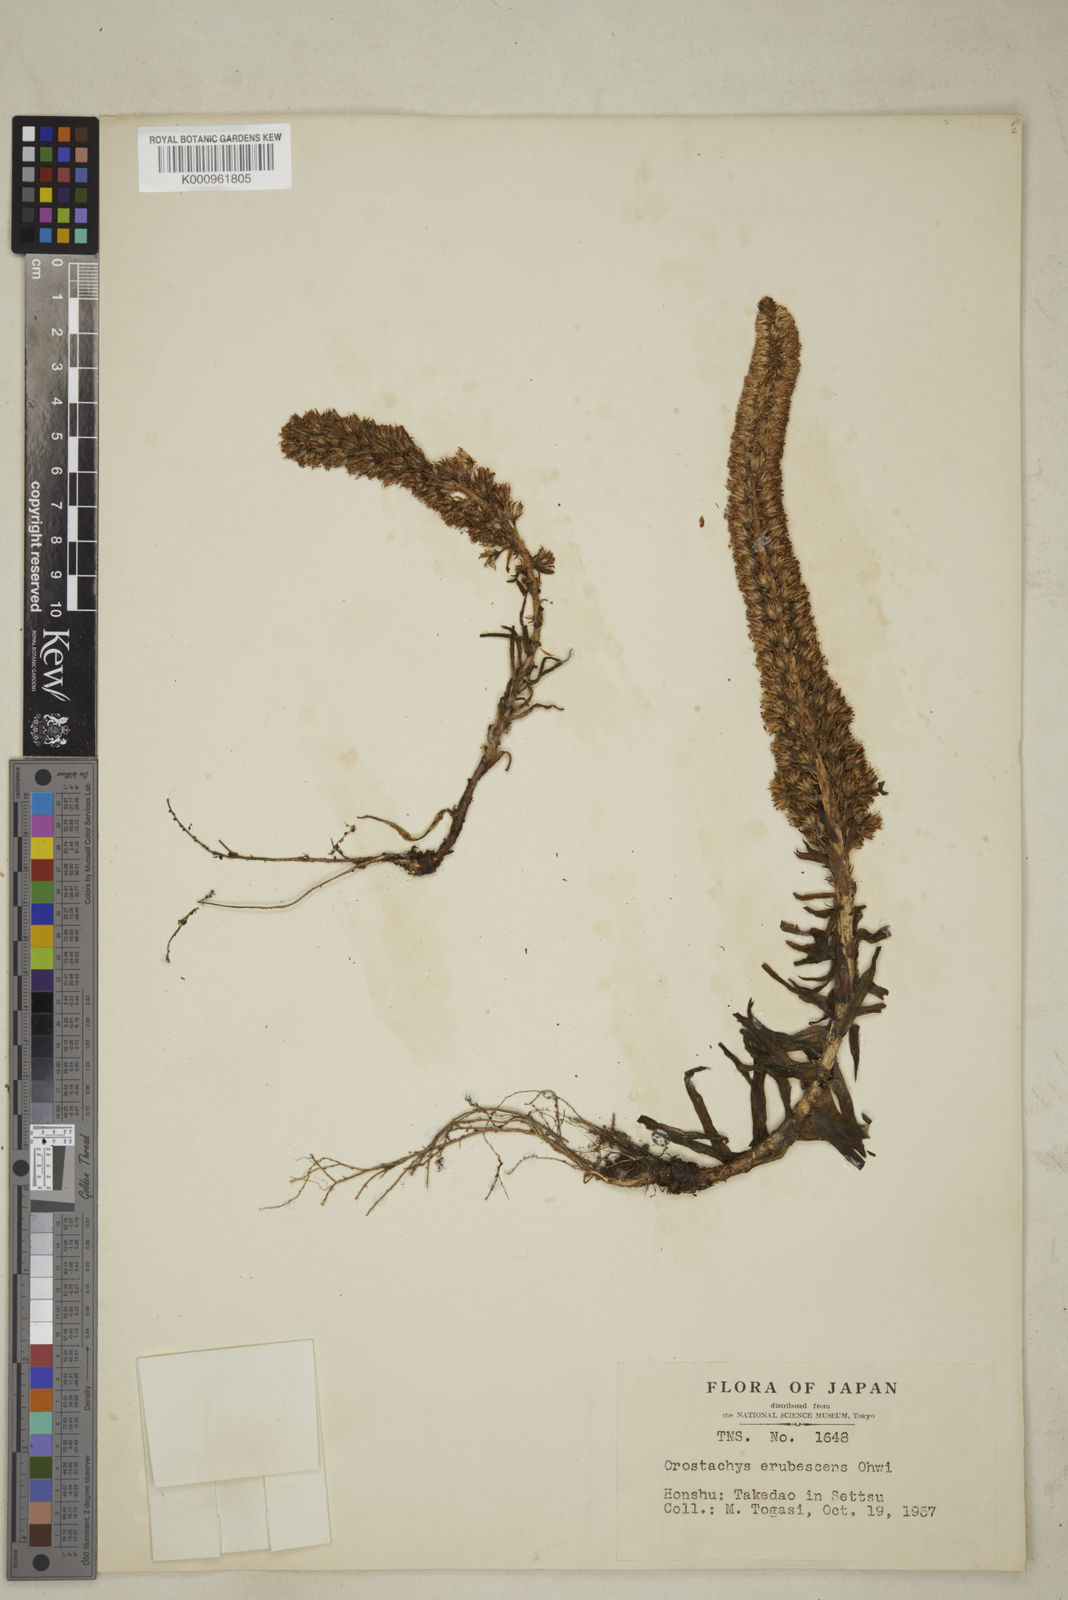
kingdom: Plantae
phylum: Tracheophyta
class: Magnoliopsida
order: Saxifragales
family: Crassulaceae
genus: Orostachys
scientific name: Orostachys japonica
